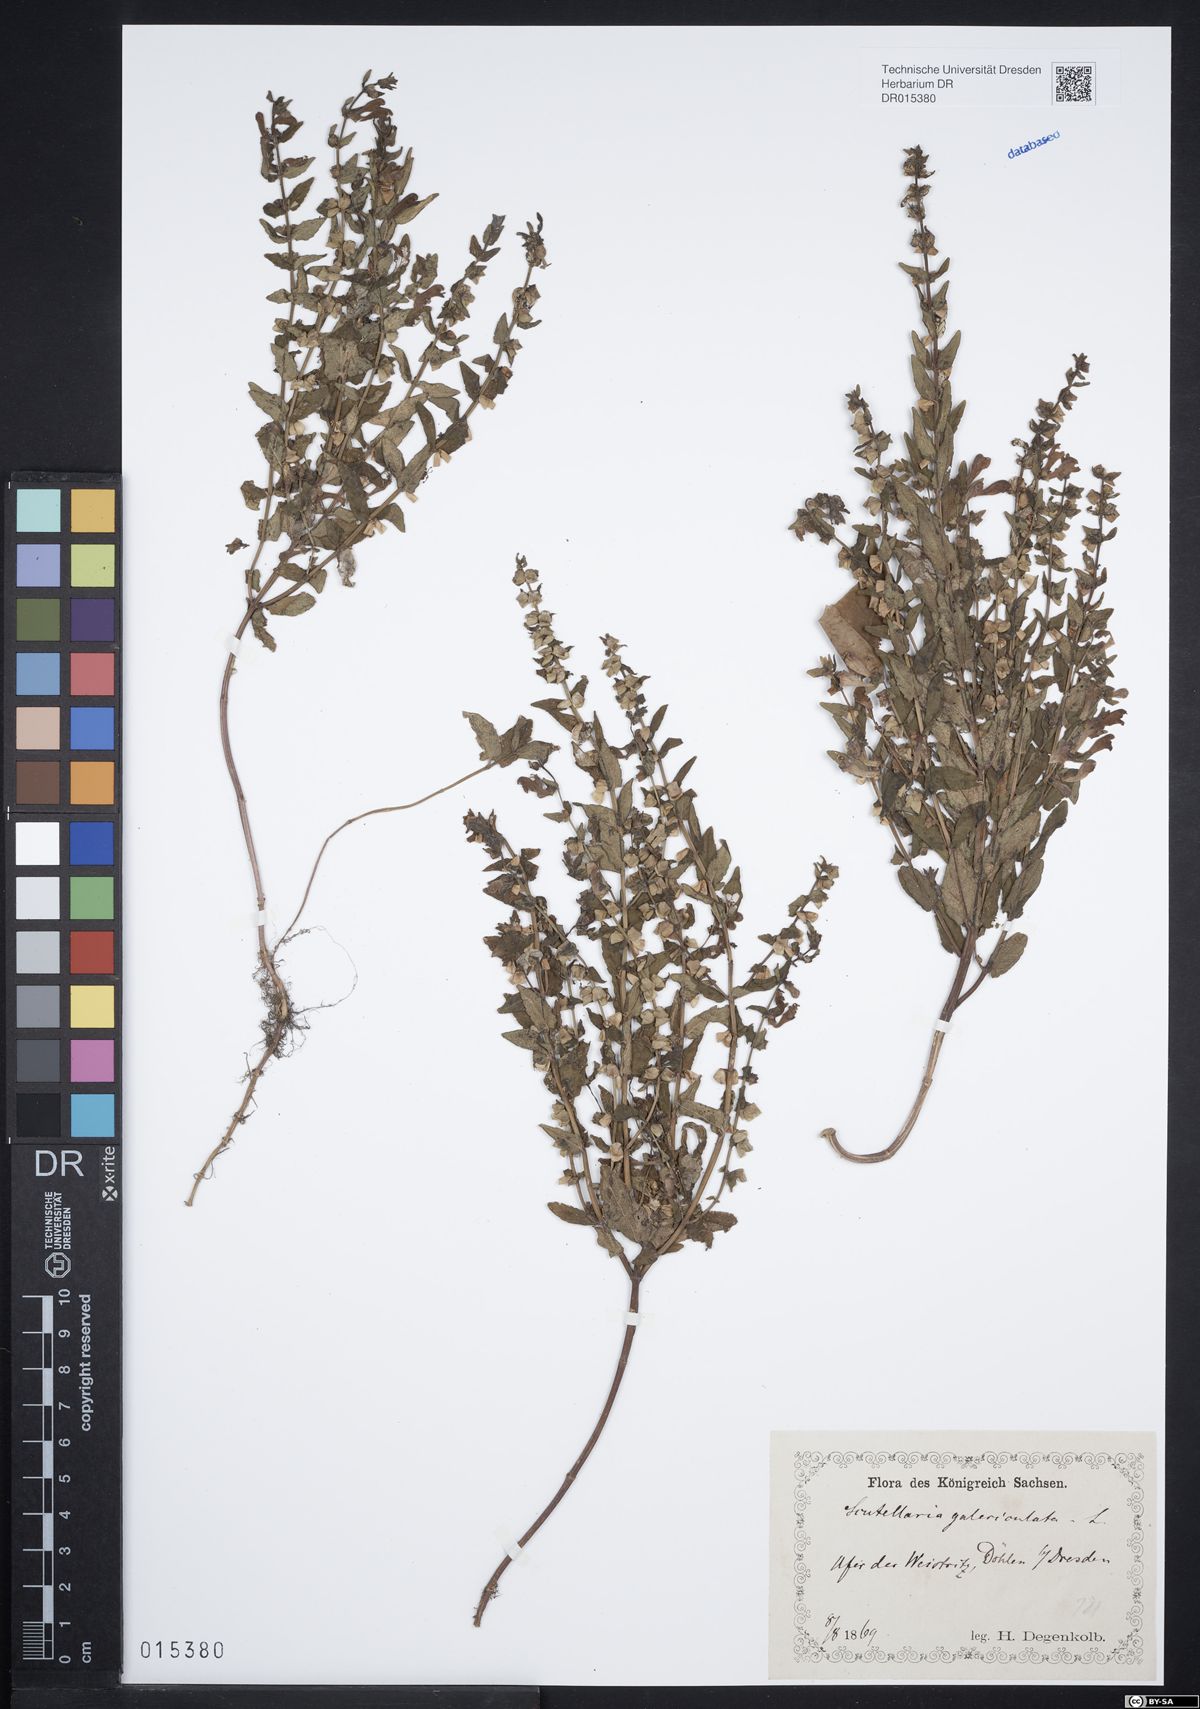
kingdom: Plantae
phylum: Tracheophyta
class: Magnoliopsida
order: Lamiales
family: Lamiaceae
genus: Scutellaria
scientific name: Scutellaria galericulata
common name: Skullcap
